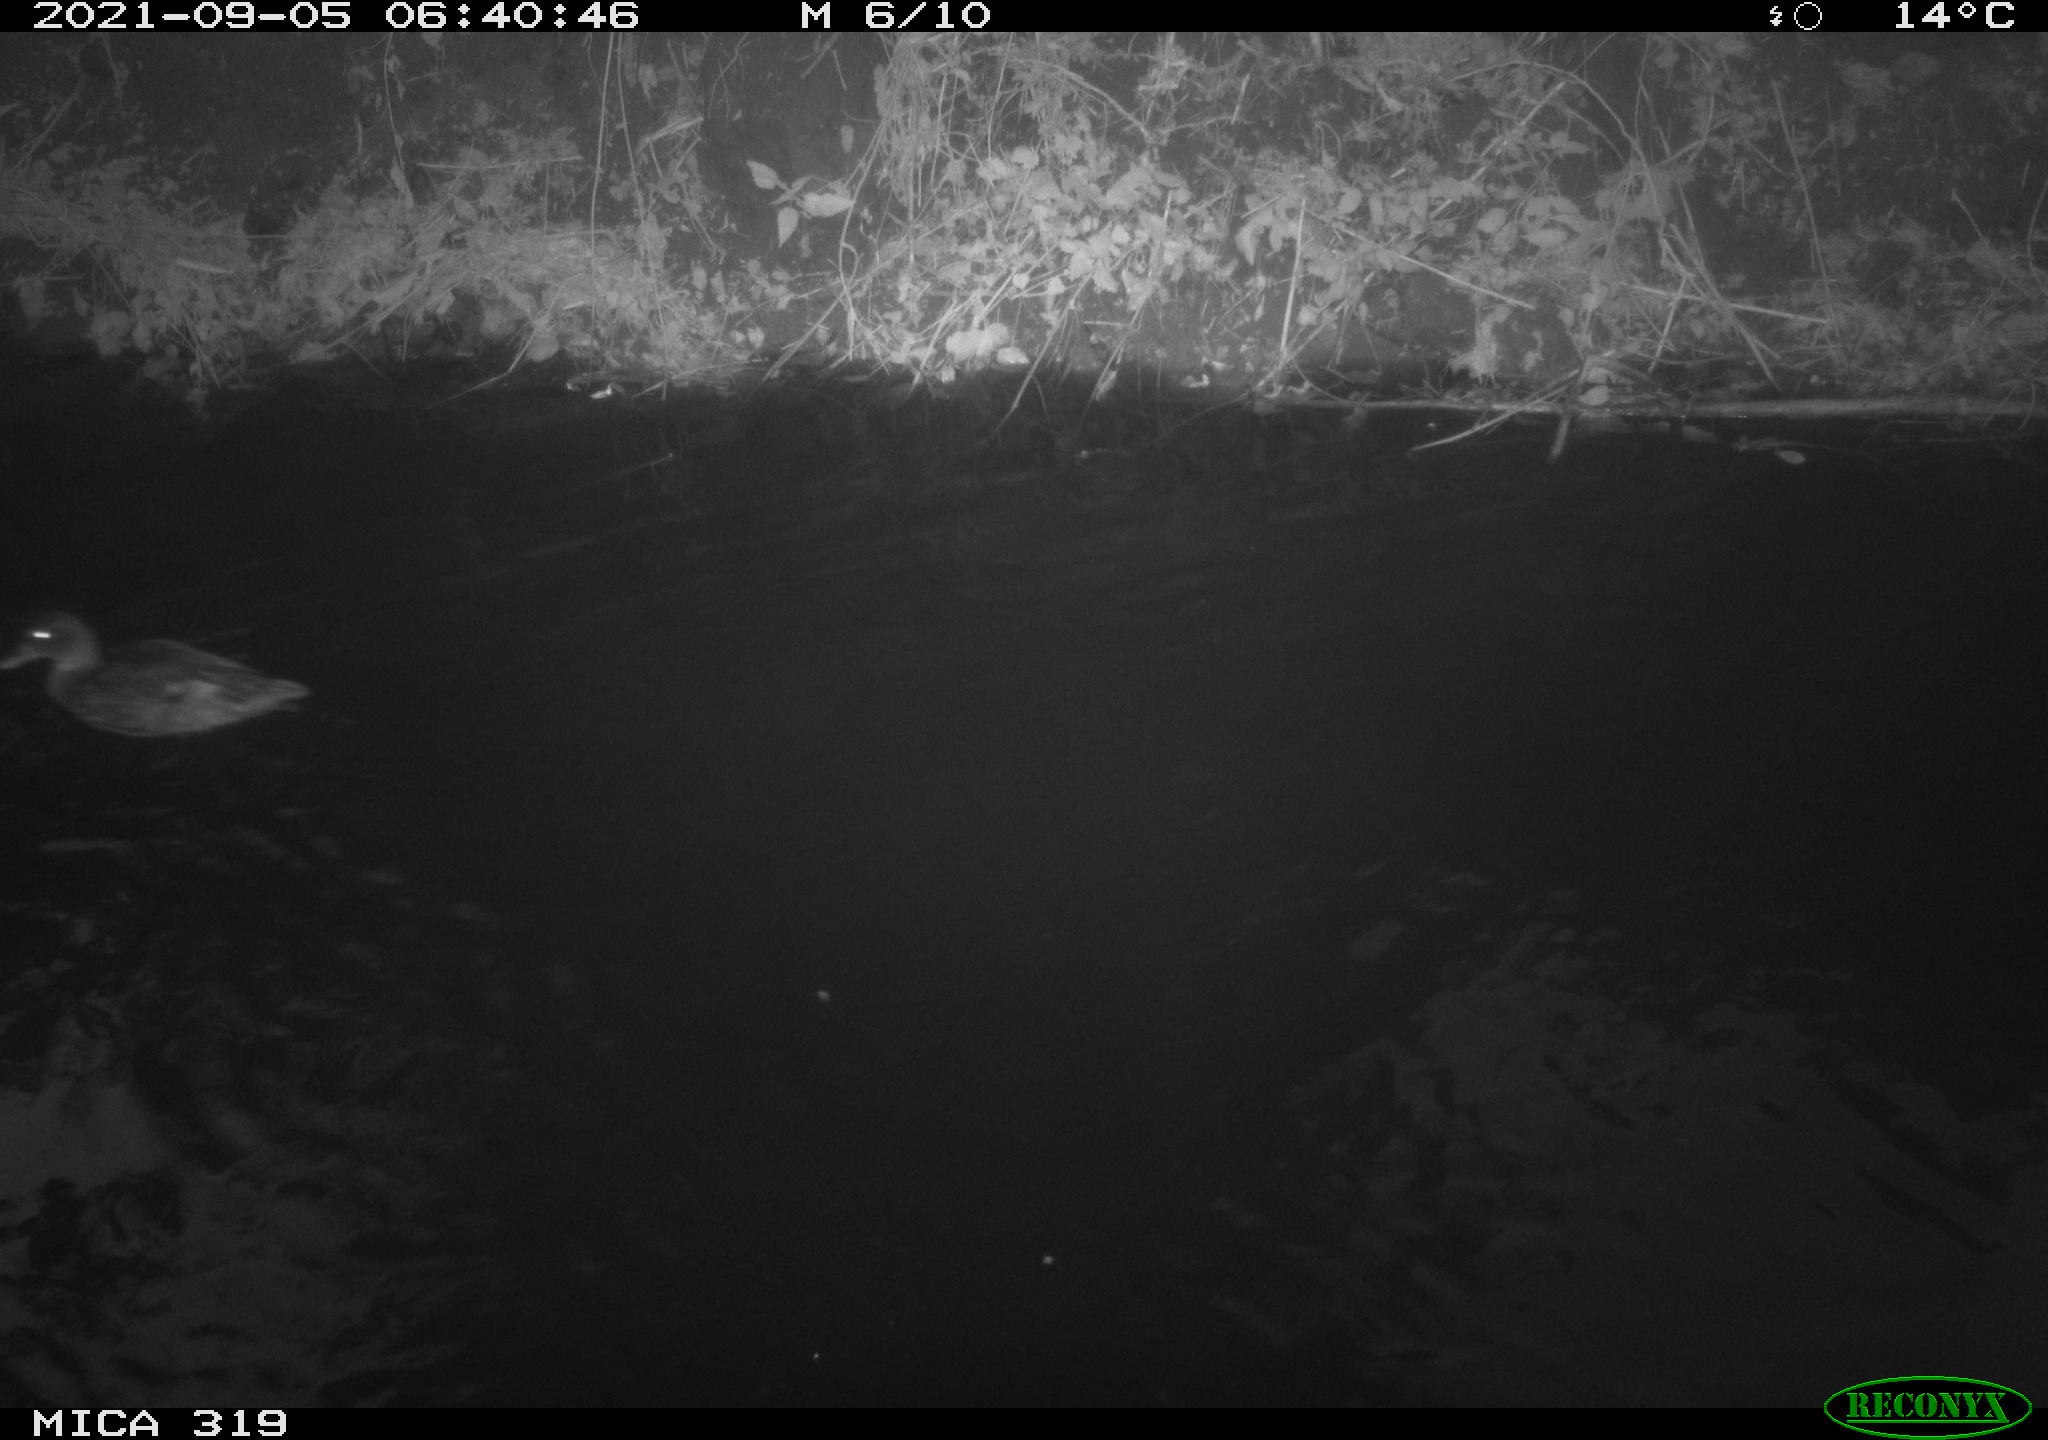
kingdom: Animalia
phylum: Chordata
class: Aves
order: Anseriformes
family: Anatidae
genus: Anas
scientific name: Anas platyrhynchos
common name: Mallard
